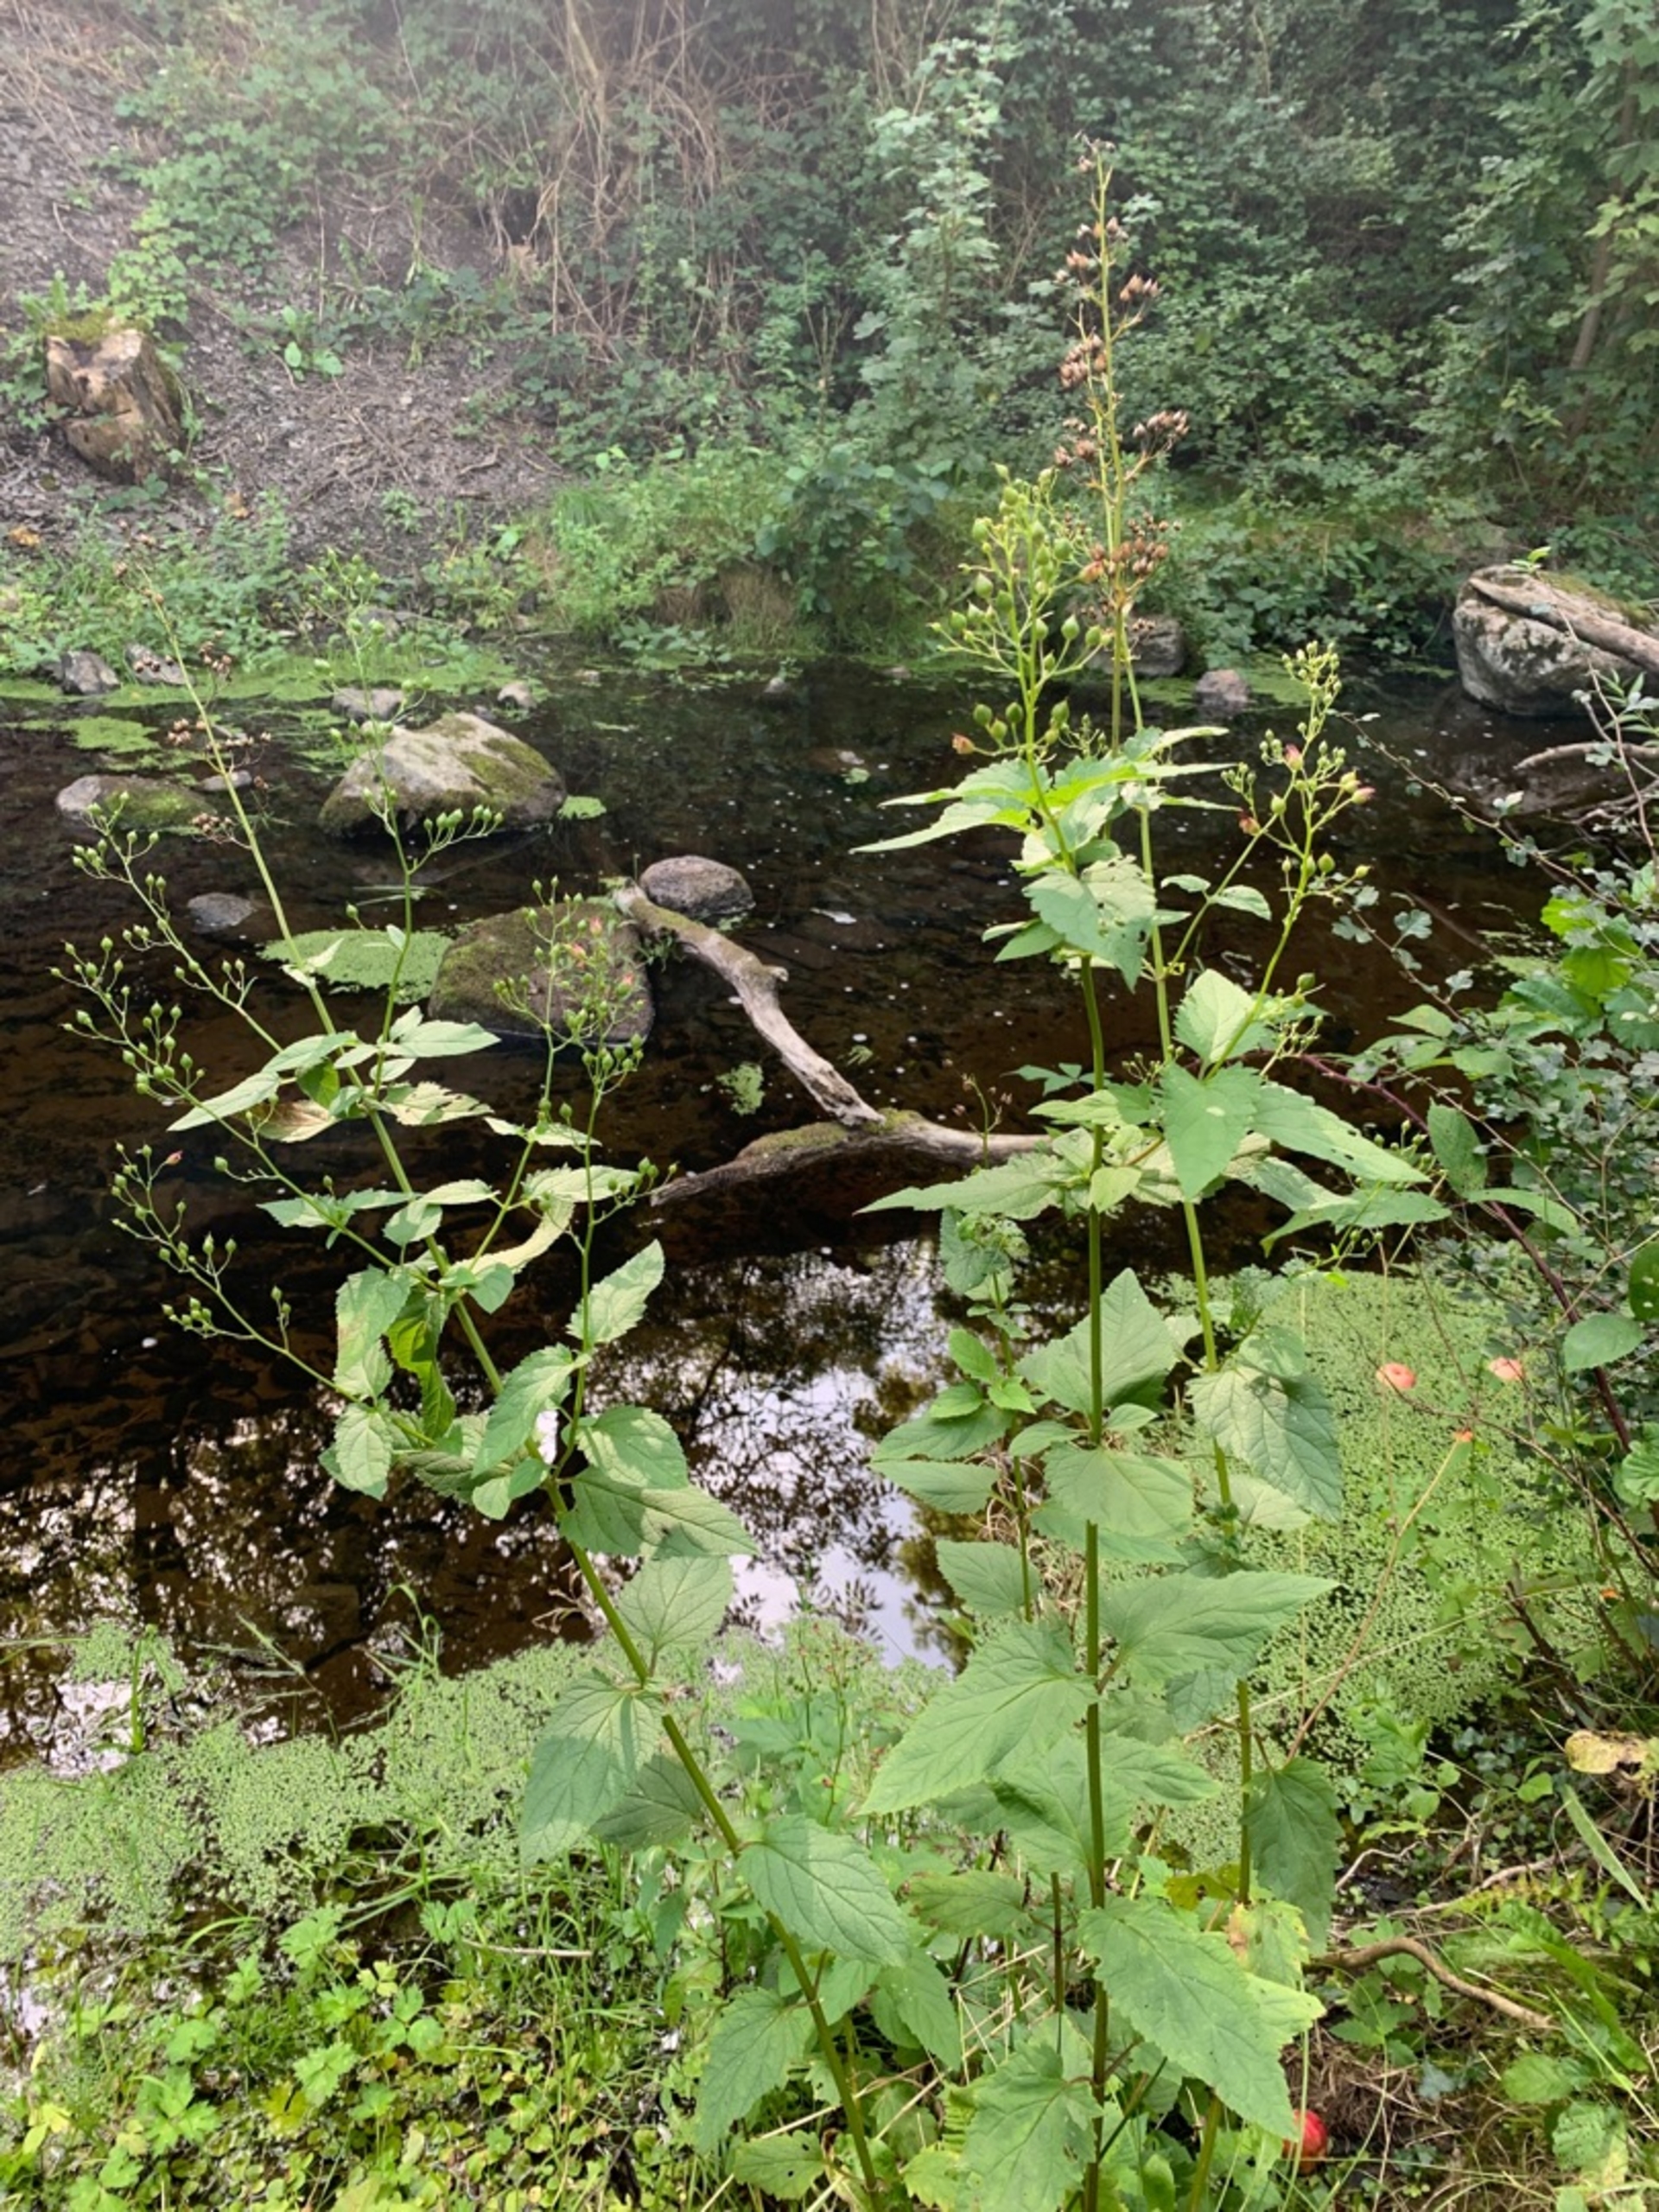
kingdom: Plantae
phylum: Tracheophyta
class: Magnoliopsida
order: Lamiales
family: Scrophulariaceae
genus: Scrophularia
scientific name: Scrophularia nodosa
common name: Knoldet brunrod
